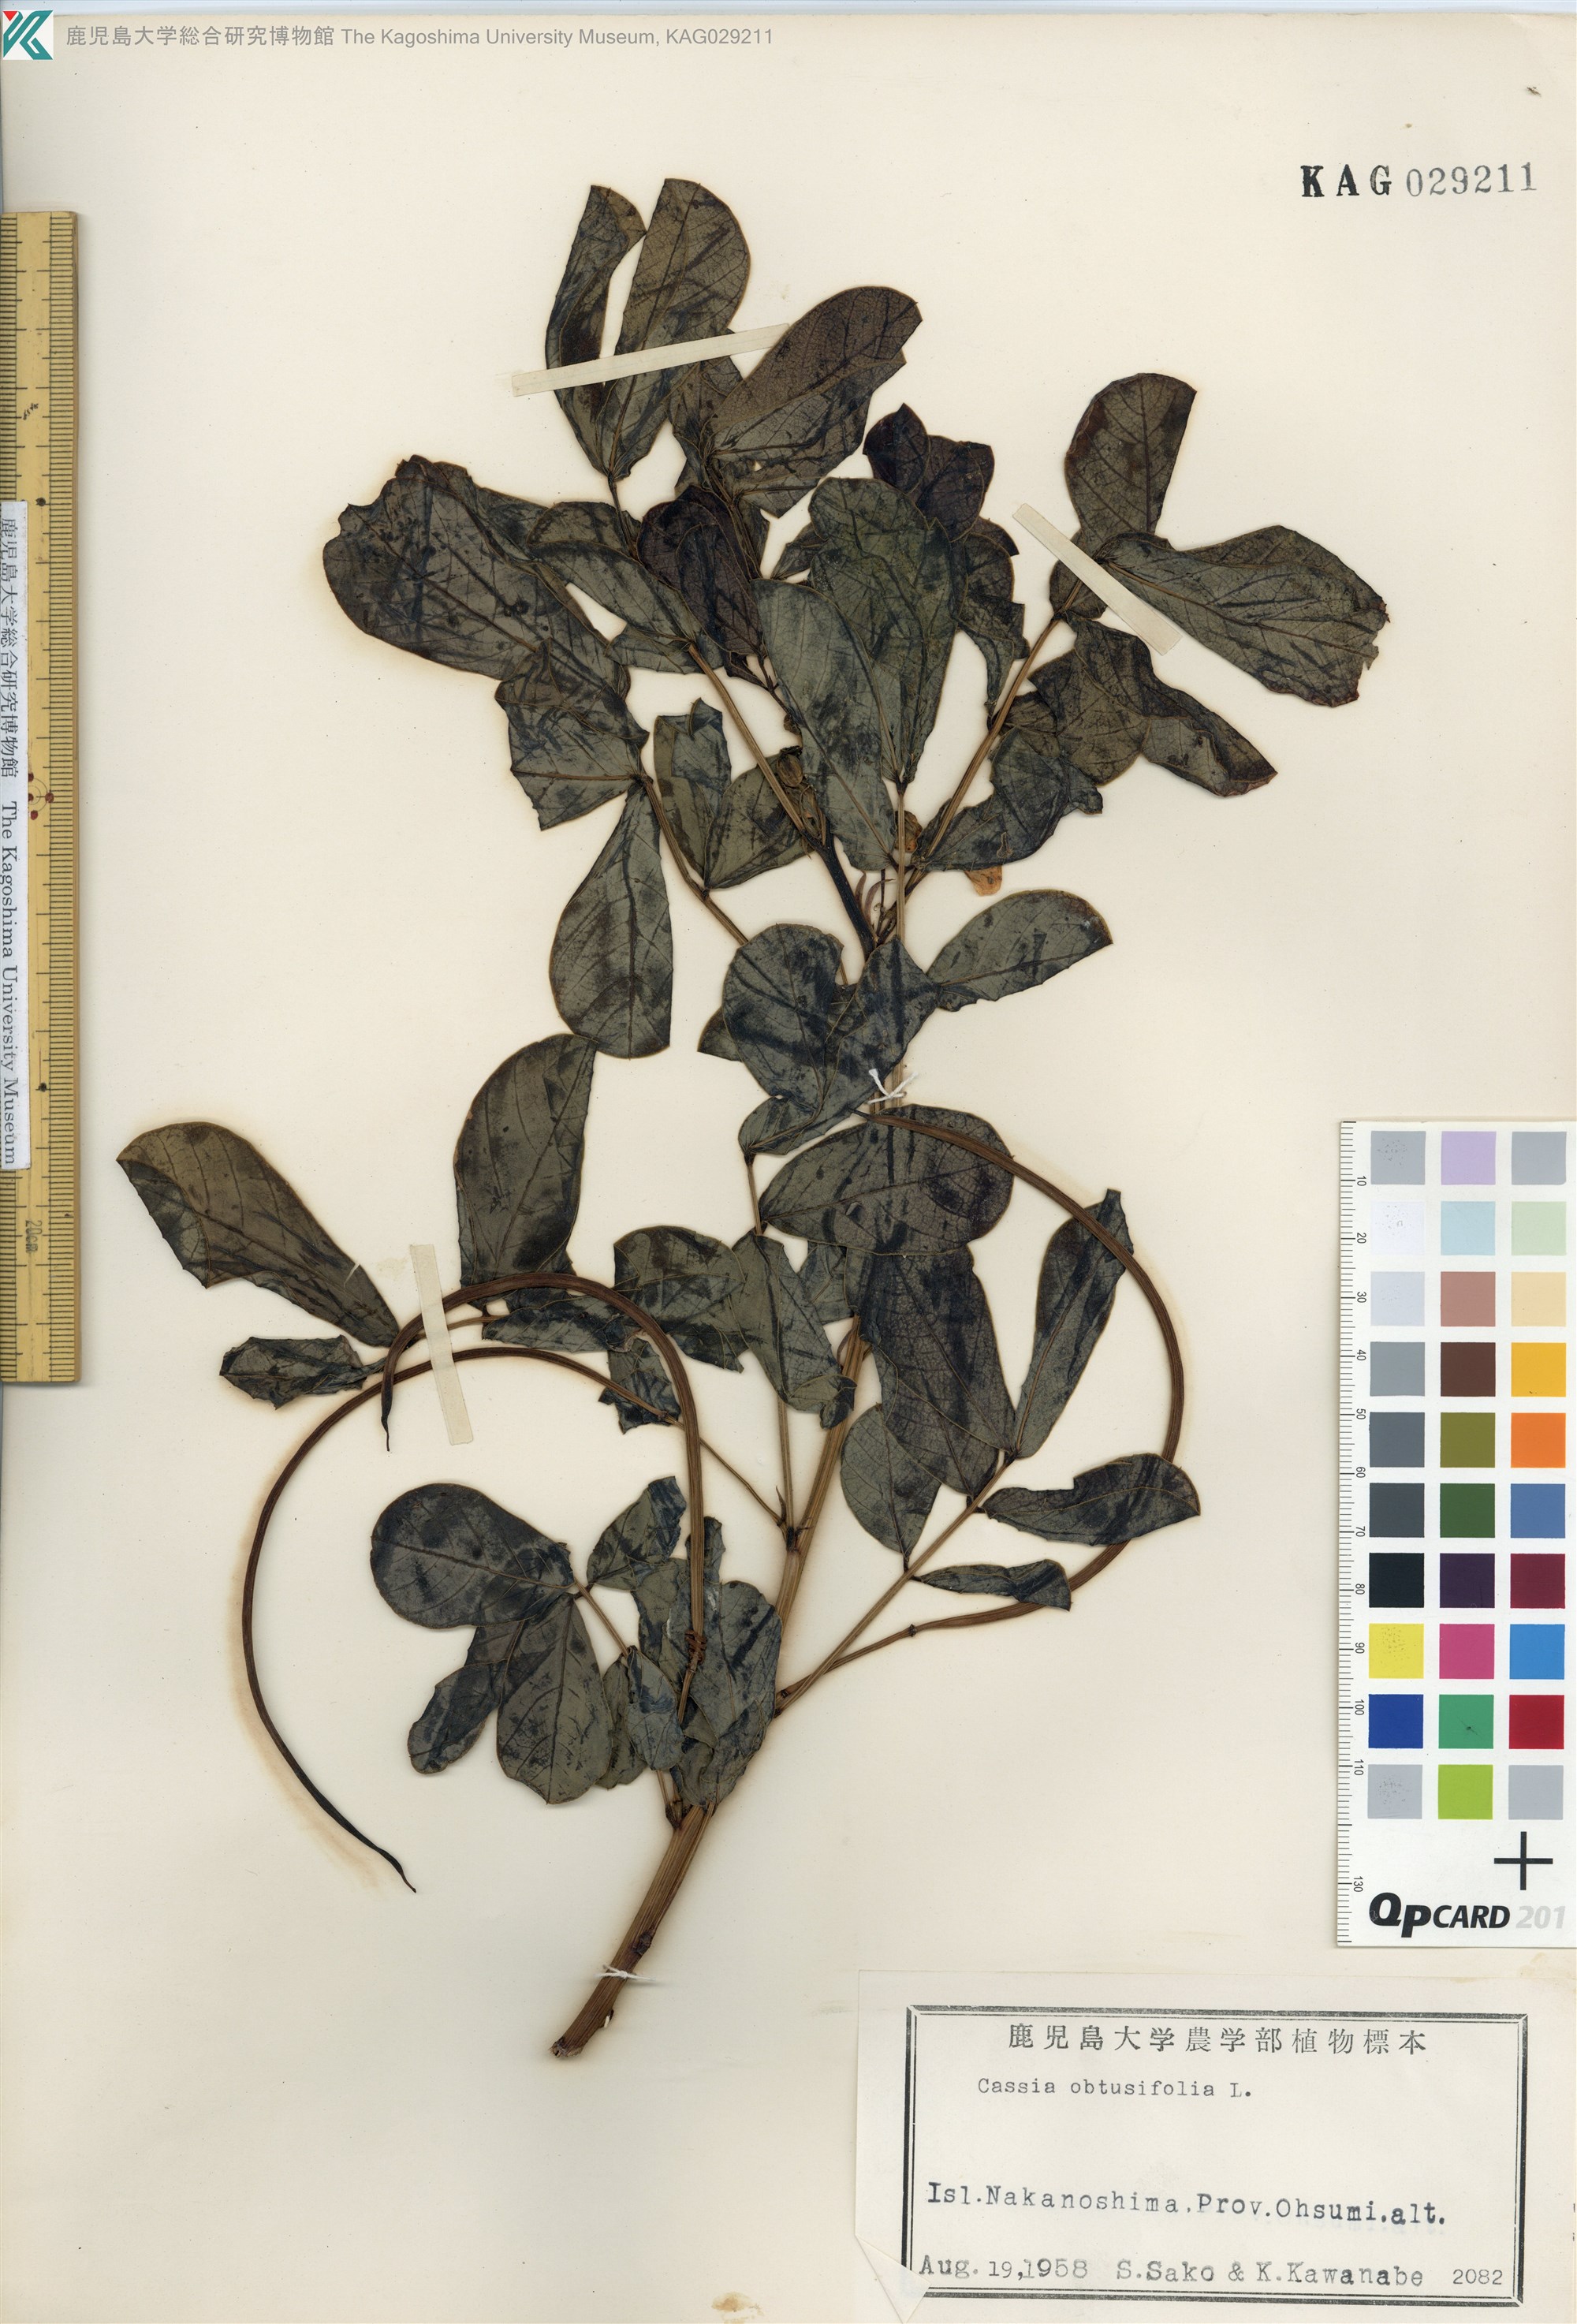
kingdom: Plantae
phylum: Tracheophyta
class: Magnoliopsida
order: Fabales
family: Fabaceae
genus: Senna
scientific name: Senna obtusifolia
